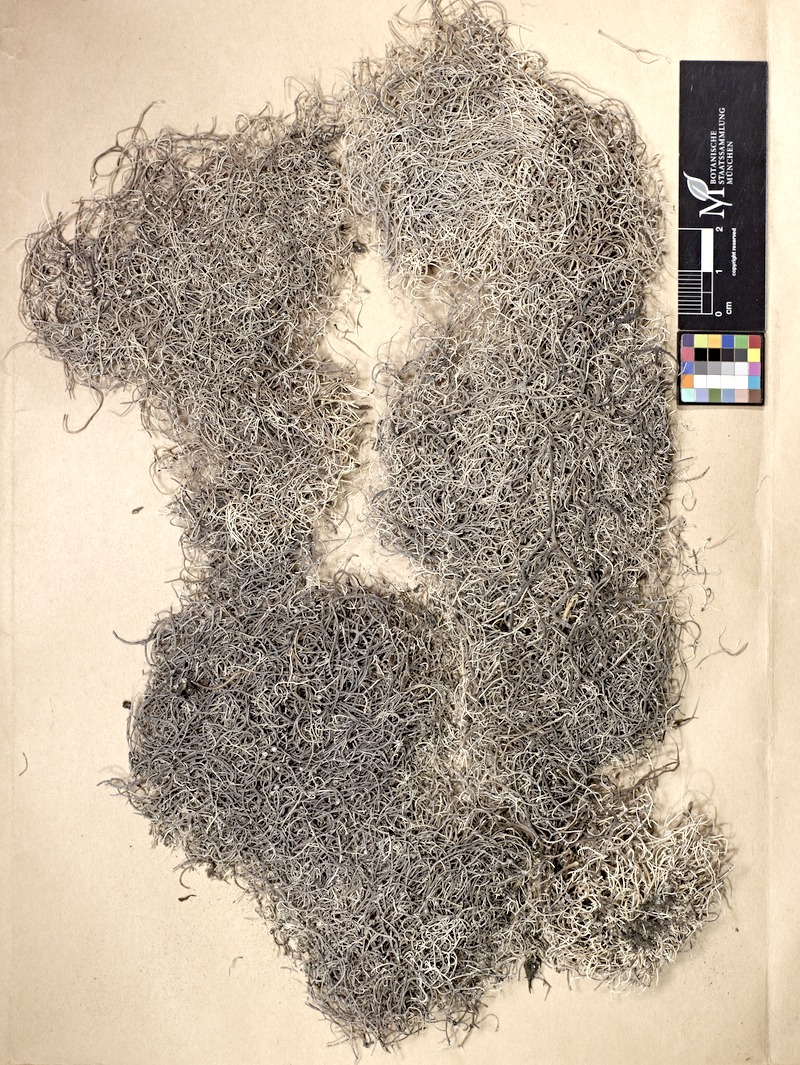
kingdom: Fungi
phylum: Ascomycota
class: Arthoniomycetes
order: Arthoniales
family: Roccellaceae
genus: Dendrographa
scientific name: Dendrographa alectoroides
